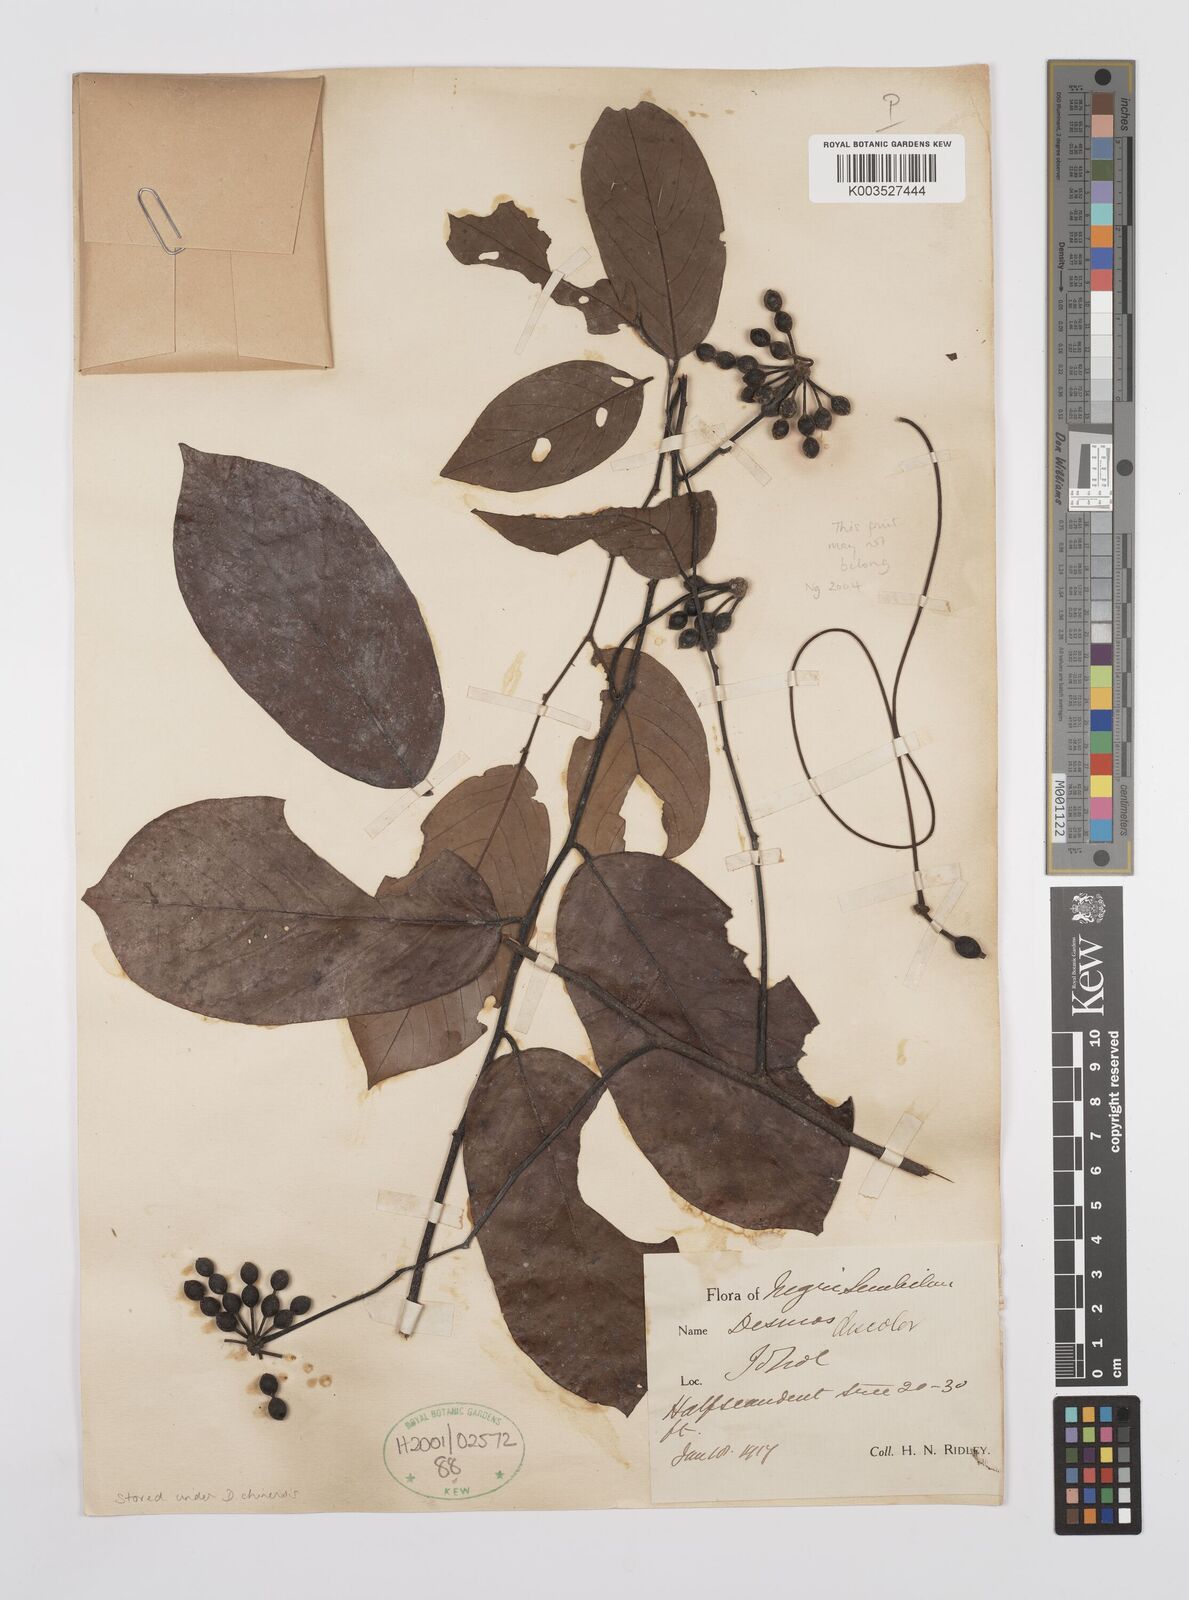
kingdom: Plantae
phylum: Tracheophyta
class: Magnoliopsida
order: Magnoliales
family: Annonaceae
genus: Desmos
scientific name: Desmos
